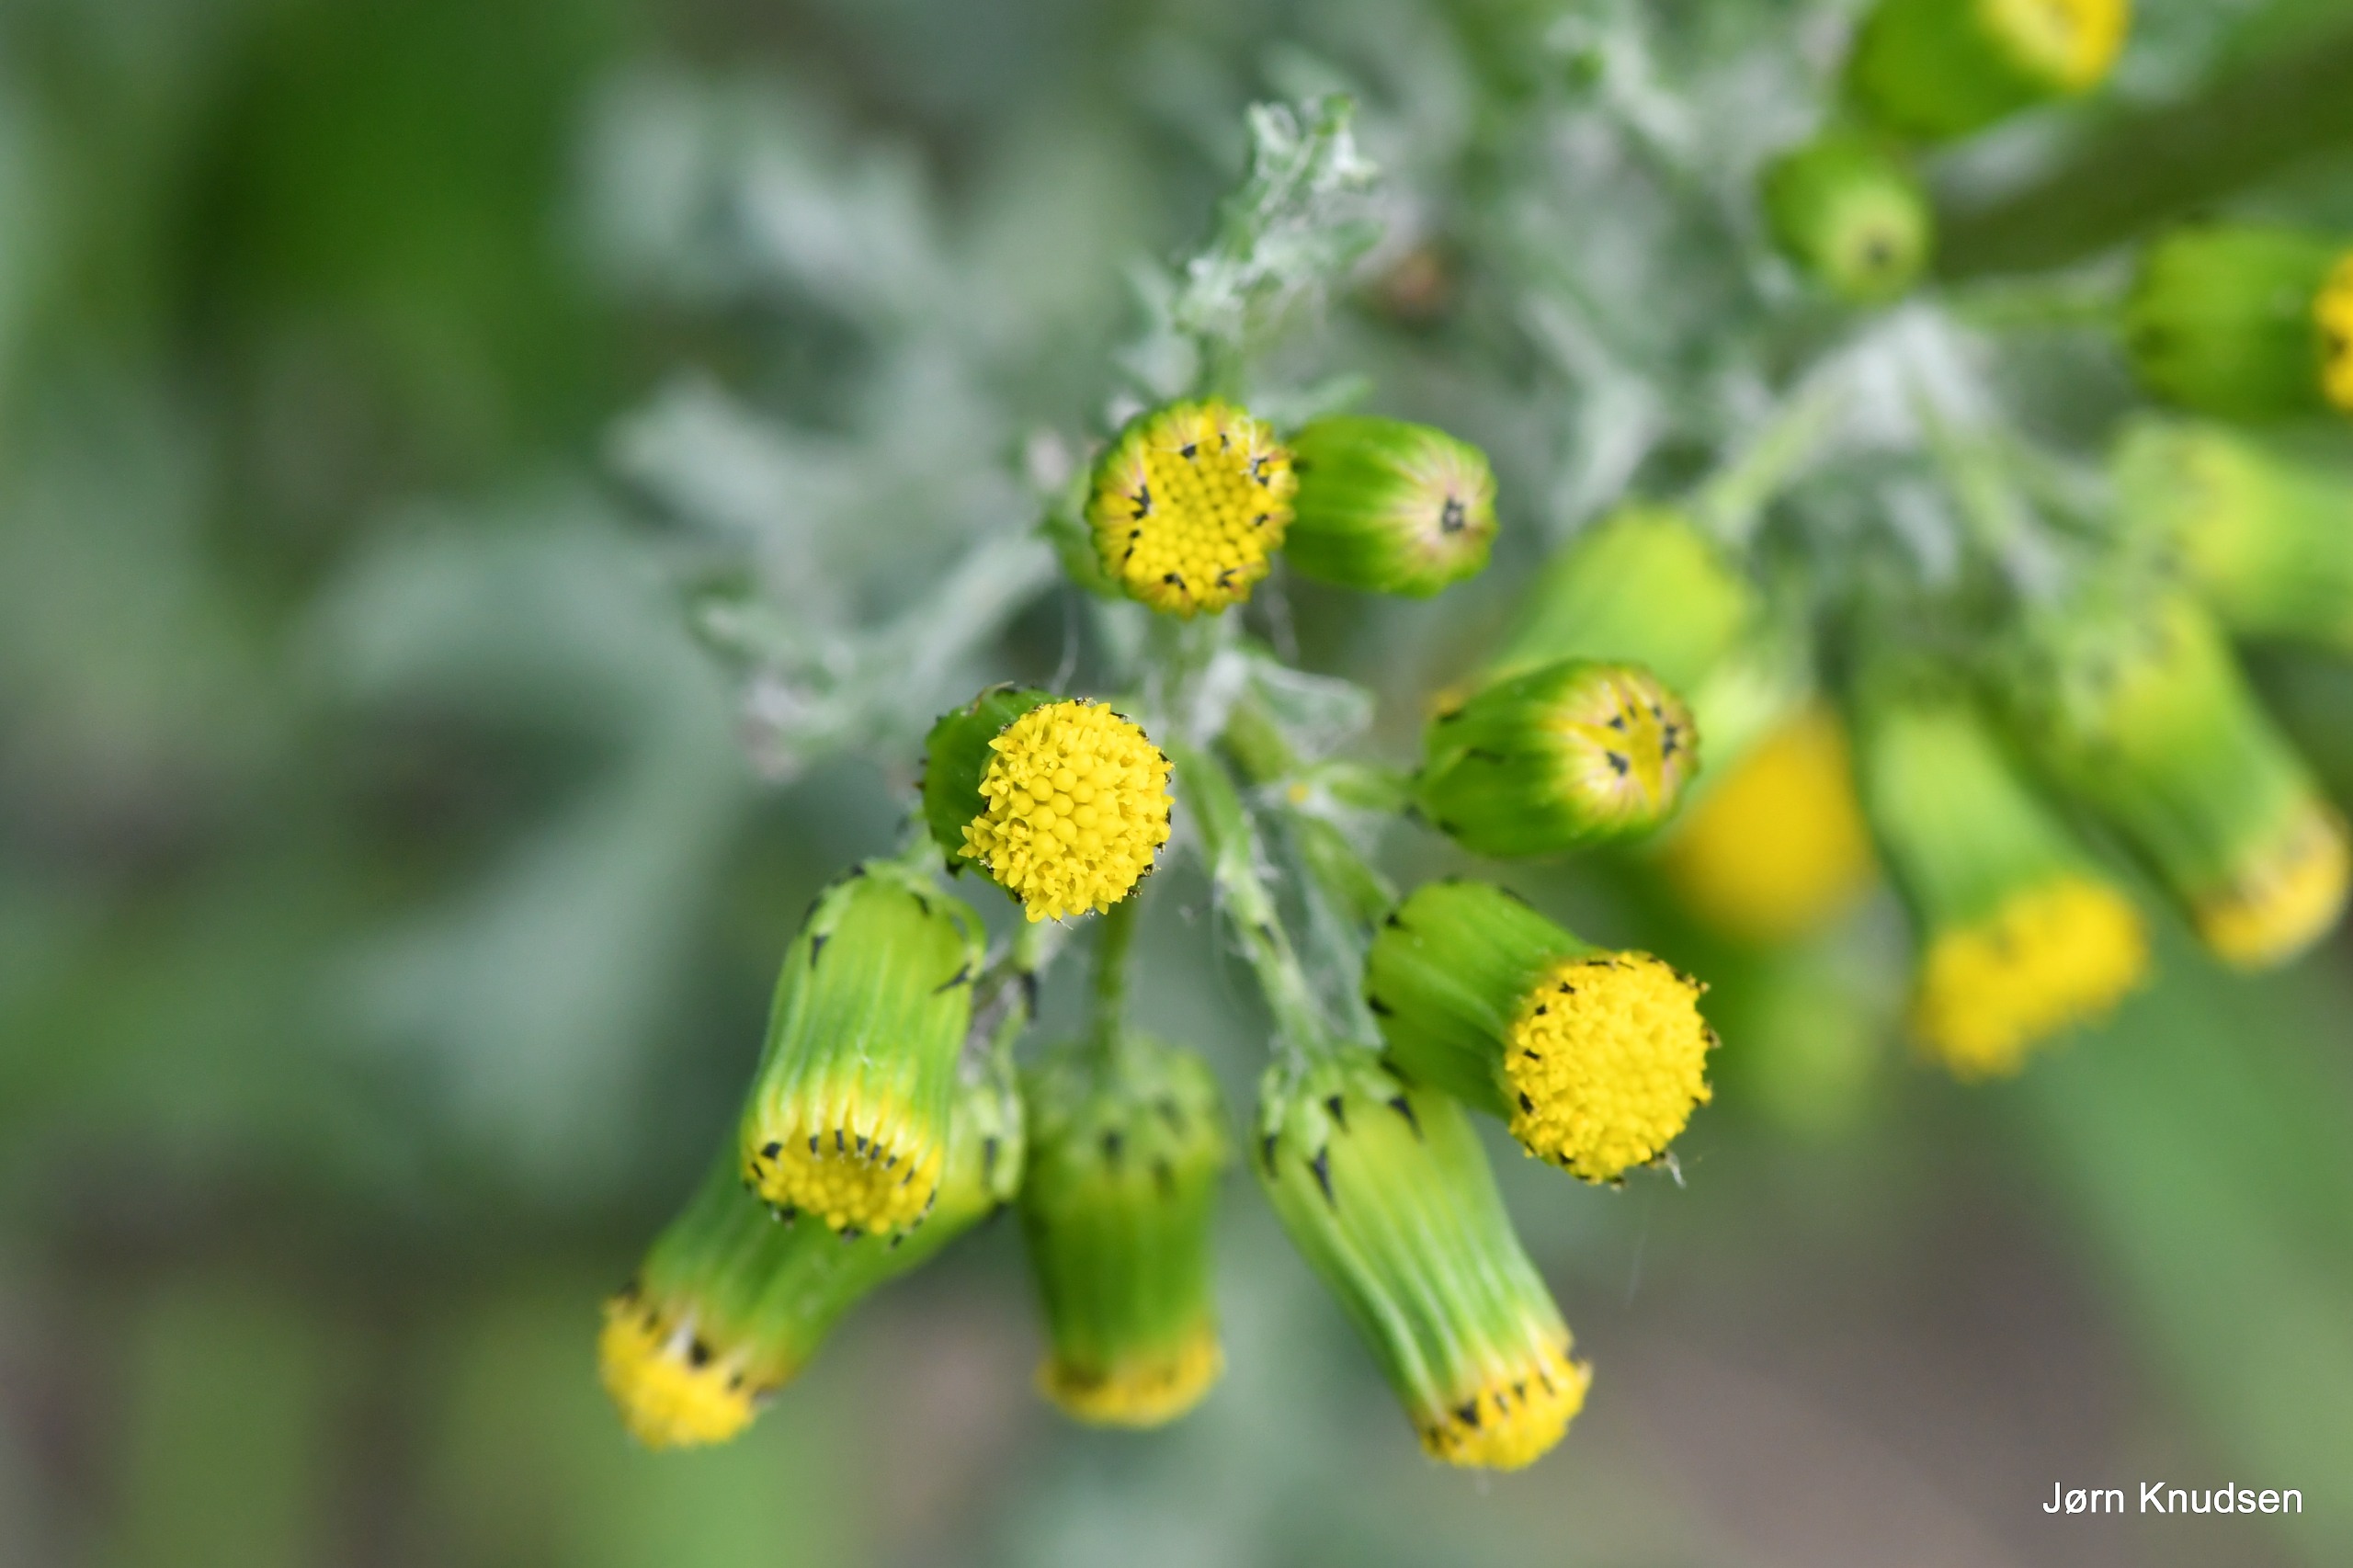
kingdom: Plantae
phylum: Tracheophyta
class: Magnoliopsida
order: Asterales
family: Asteraceae
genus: Senecio
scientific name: Senecio vulgaris
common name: Almindelig brandbæger
